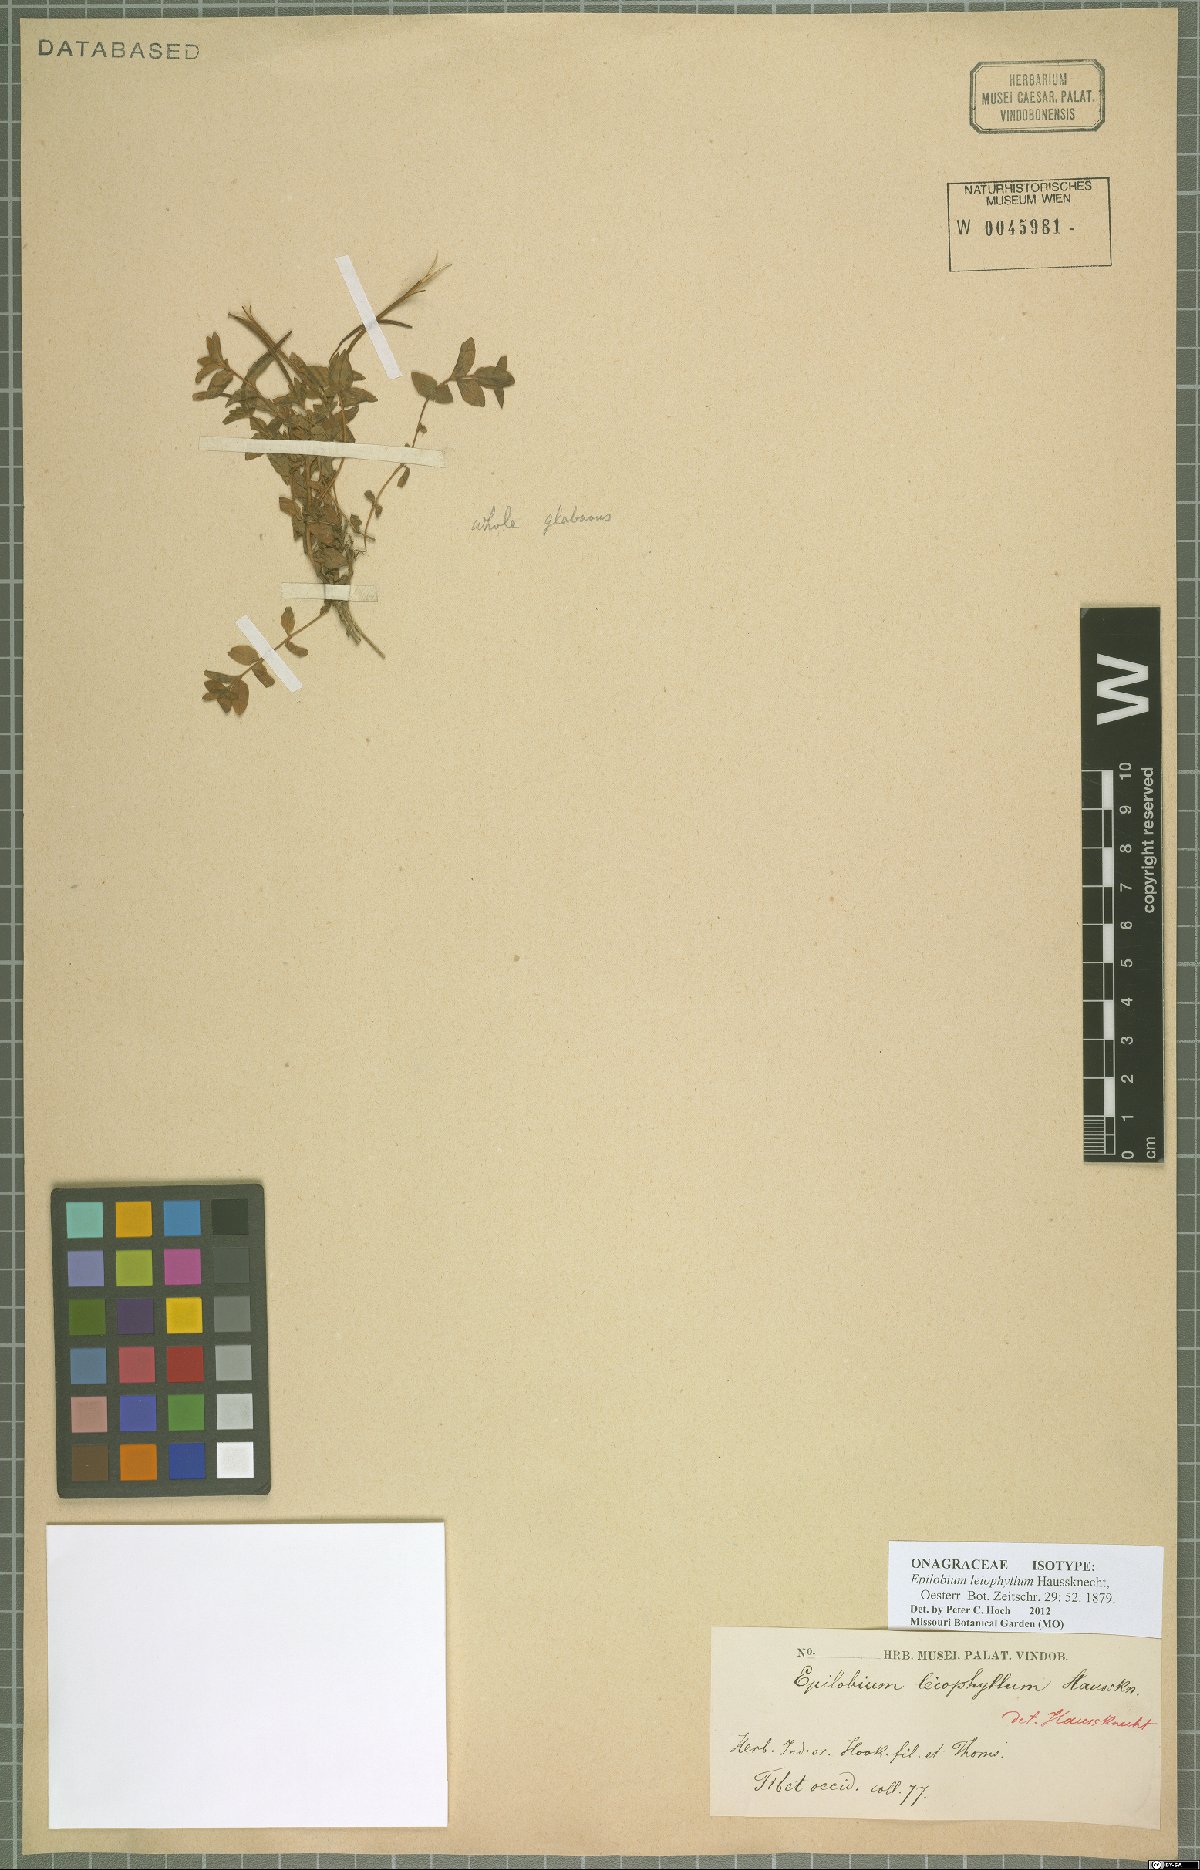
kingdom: Plantae
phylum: Tracheophyta
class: Magnoliopsida
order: Myrtales
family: Onagraceae
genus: Epilobium
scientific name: Epilobium leiophyllum
